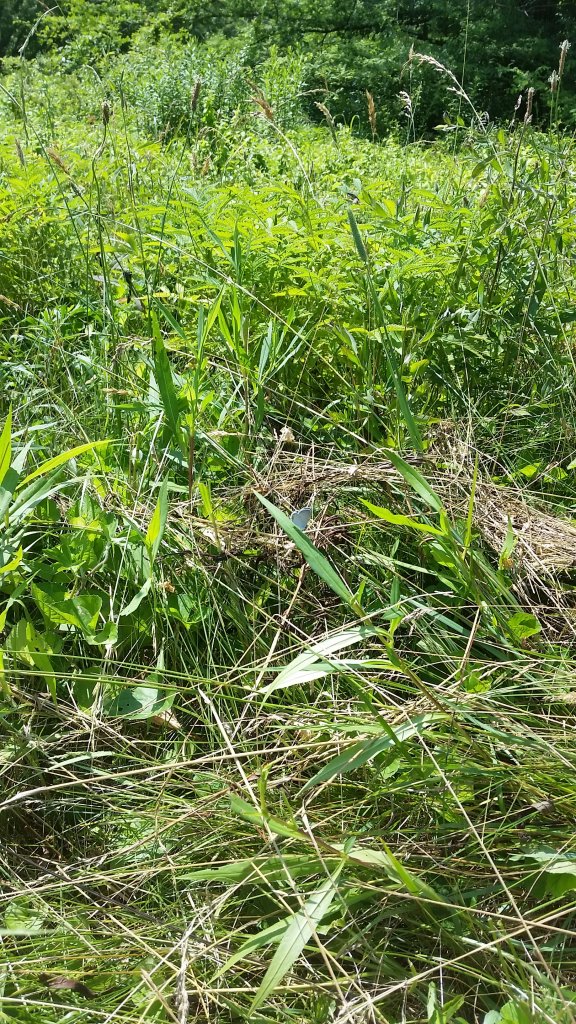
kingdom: Animalia
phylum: Arthropoda
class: Insecta
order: Lepidoptera
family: Lycaenidae
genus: Elkalyce
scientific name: Elkalyce comyntas
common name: Eastern Tailed-Blue
